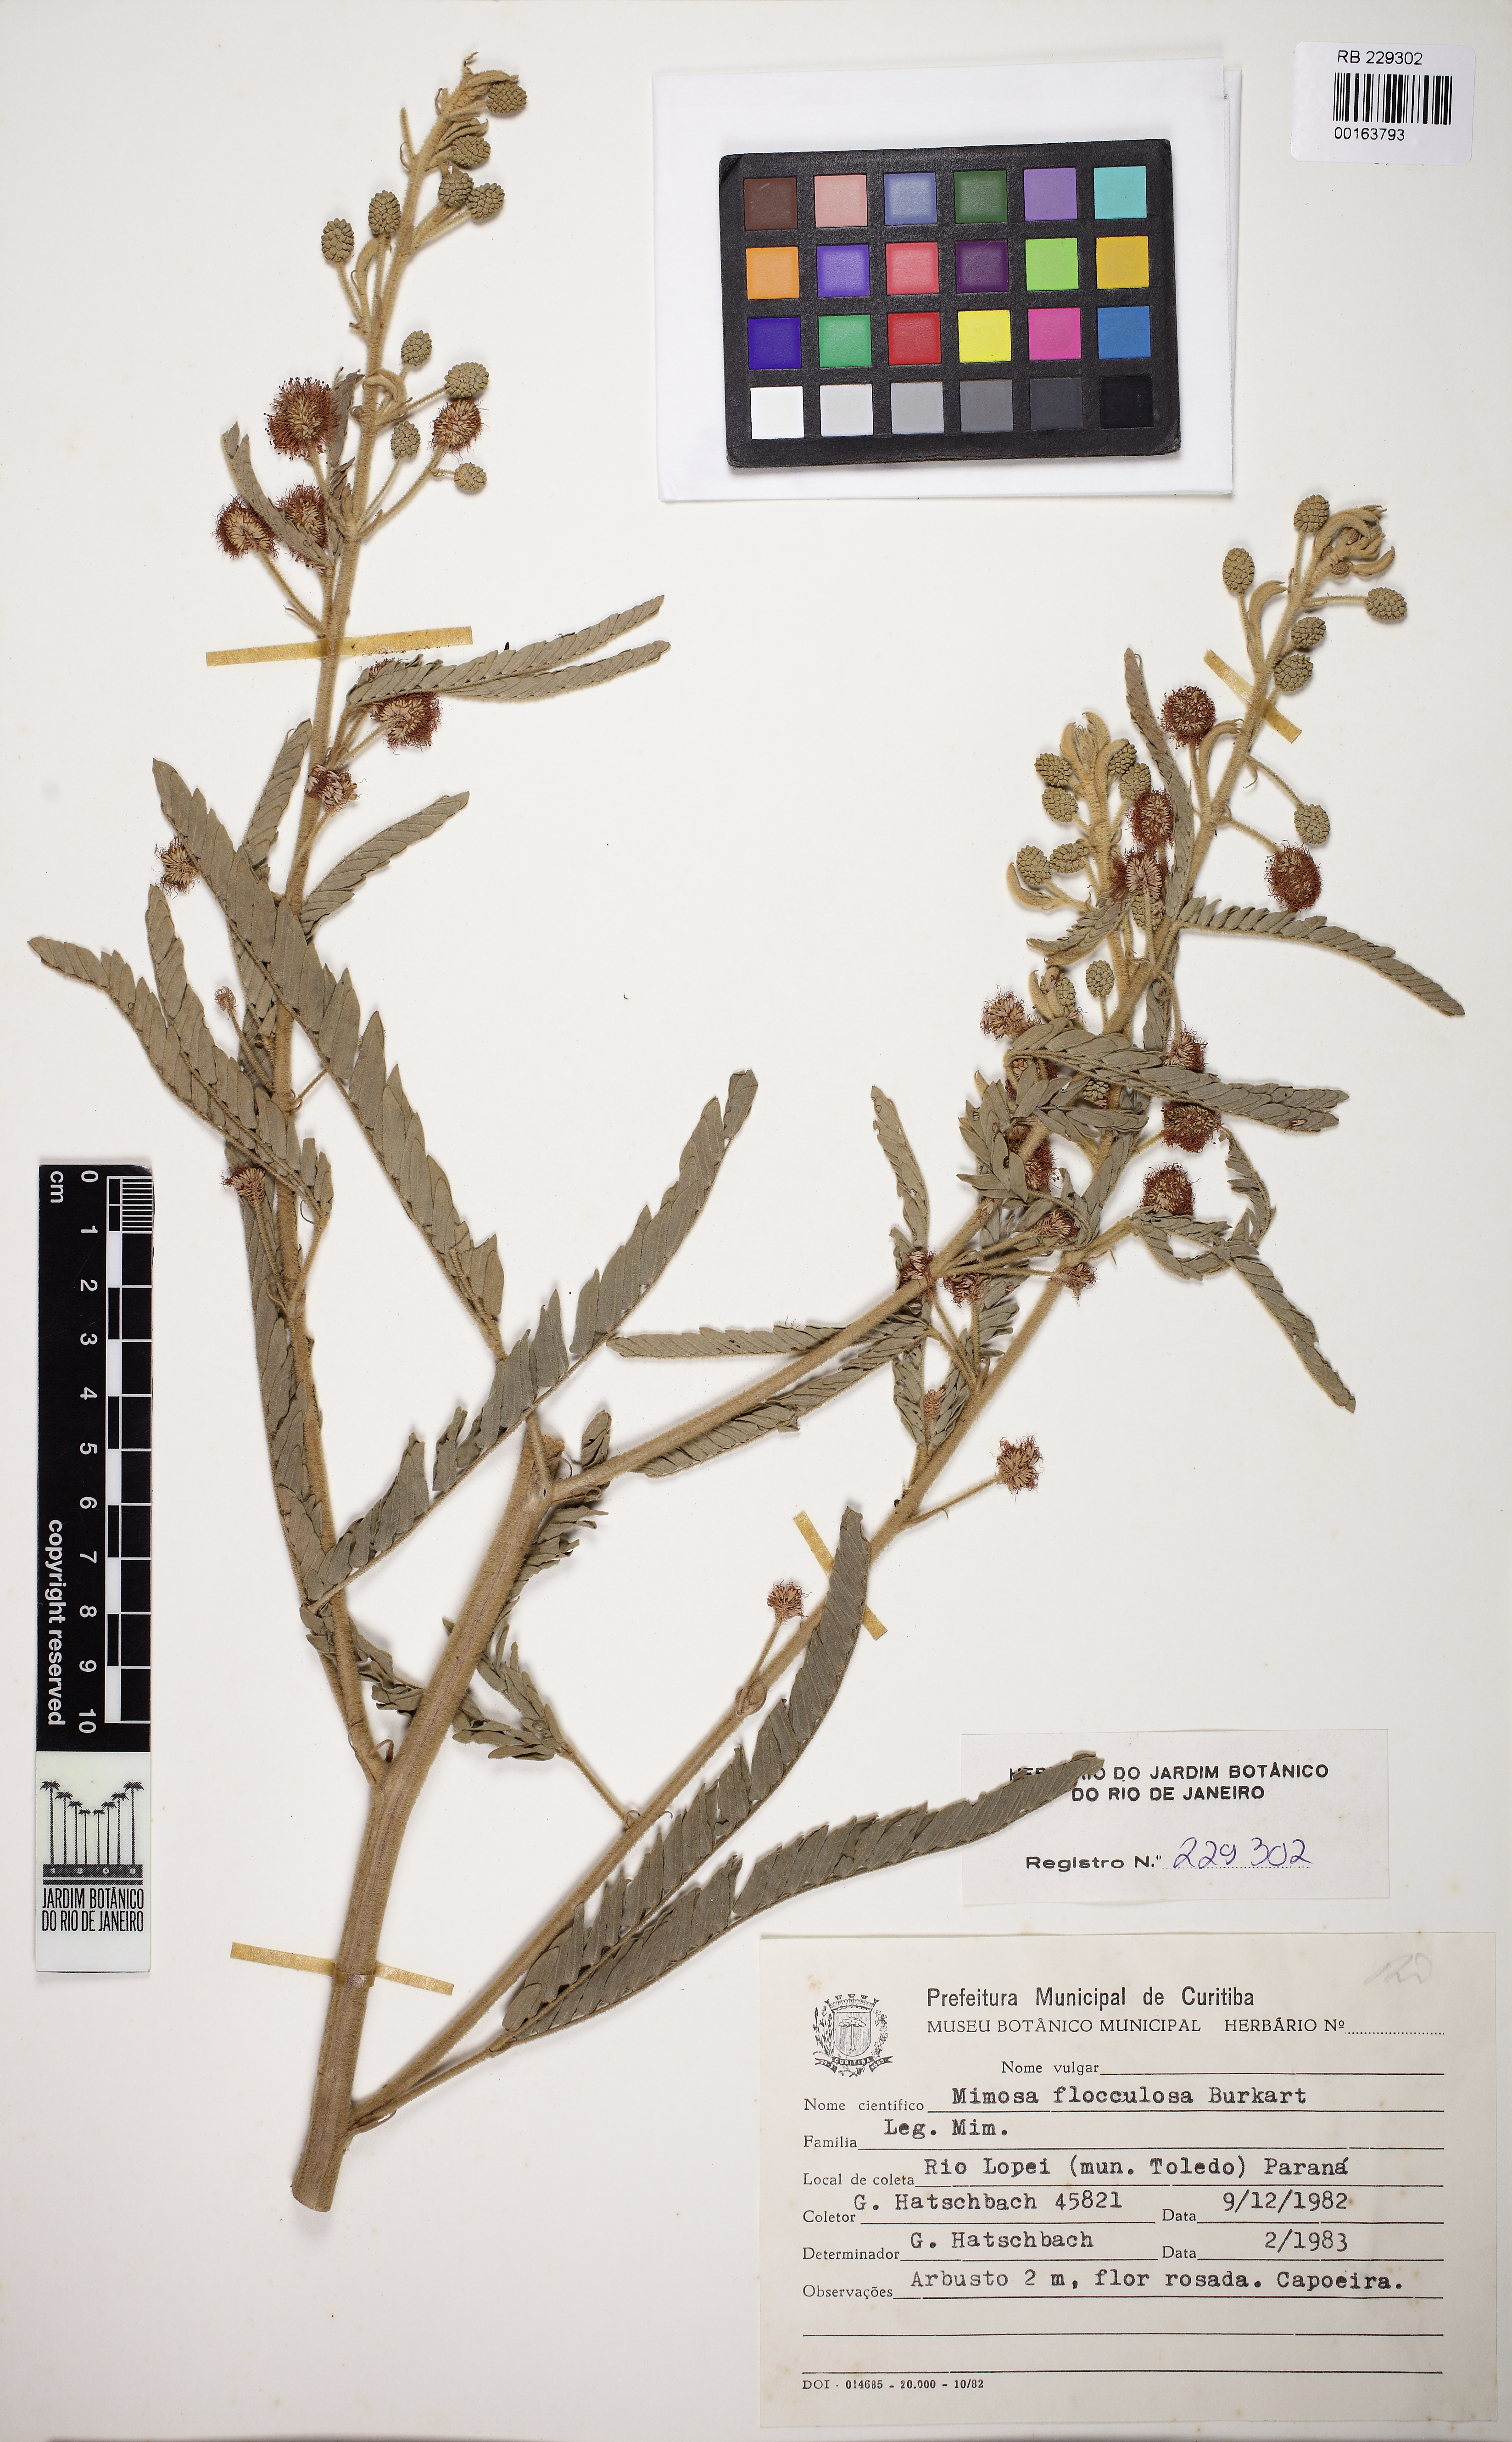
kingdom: Plantae
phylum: Tracheophyta
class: Magnoliopsida
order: Fabales
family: Fabaceae
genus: Mimosa
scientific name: Mimosa flocculosa
